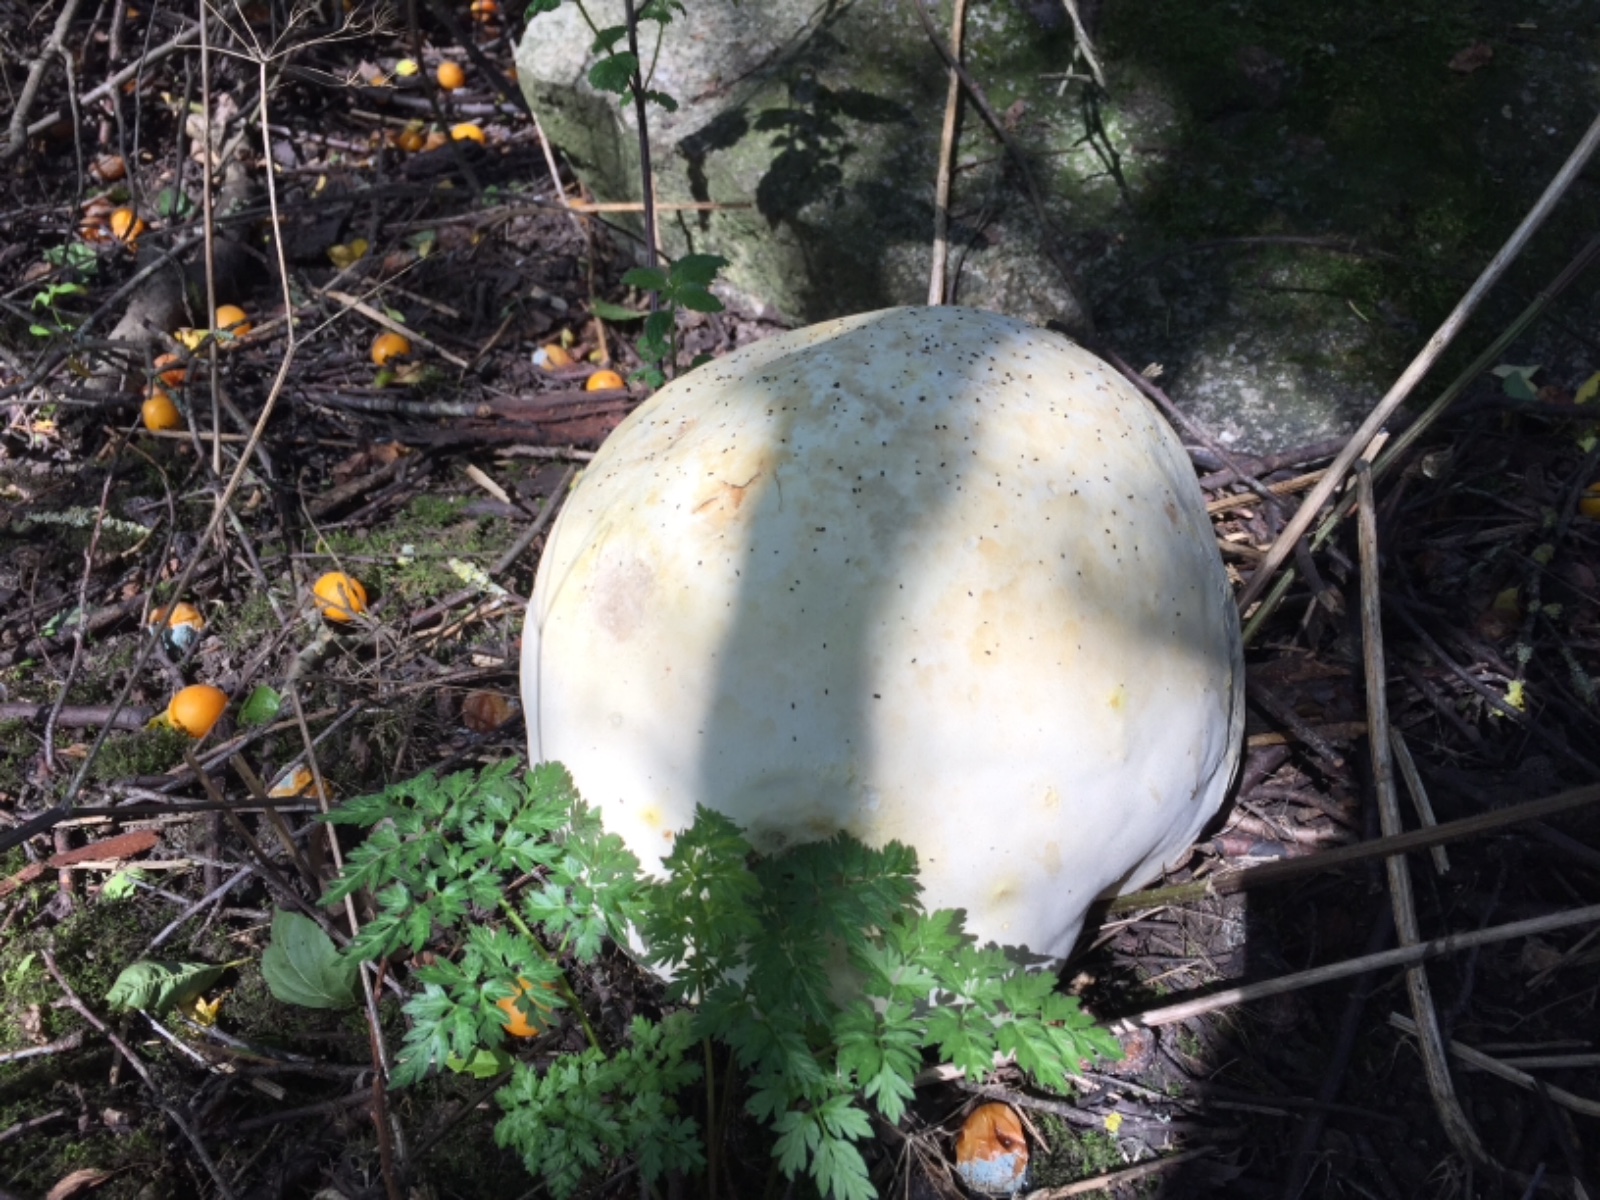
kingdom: Fungi
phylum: Basidiomycota
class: Agaricomycetes
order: Agaricales
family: Lycoperdaceae
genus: Calvatia
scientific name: Calvatia gigantea
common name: kæmpestøvbold
